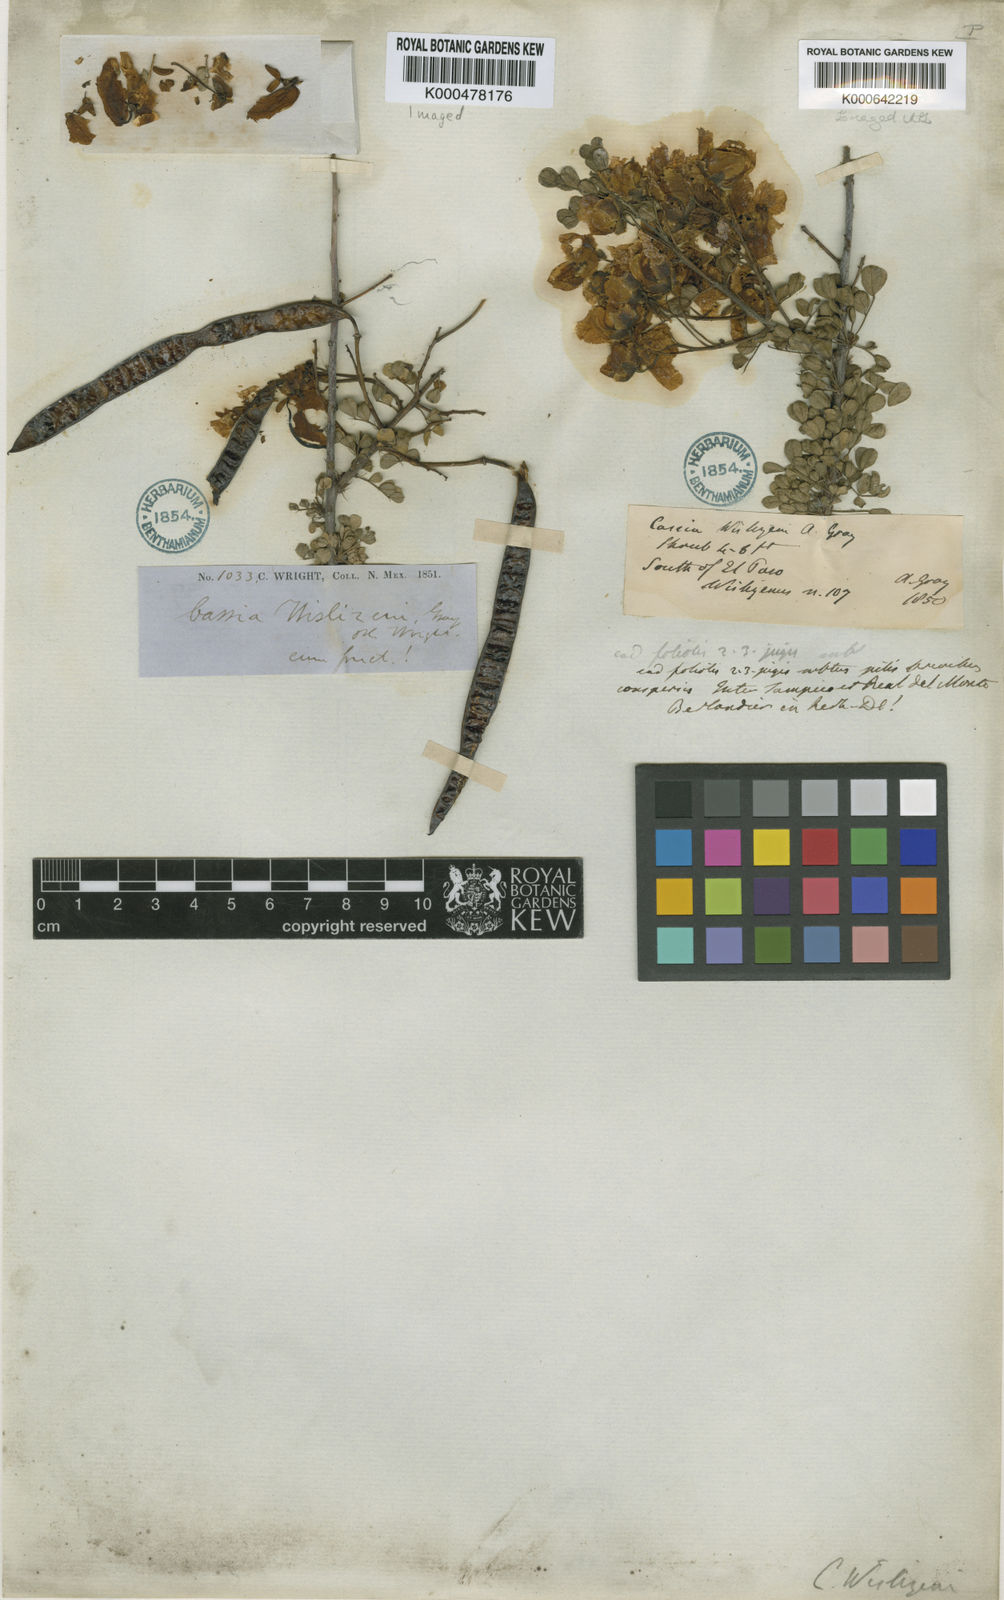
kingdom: Plantae
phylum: Tracheophyta
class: Magnoliopsida
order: Fabales
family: Fabaceae
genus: Senna
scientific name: Senna wislizeni
